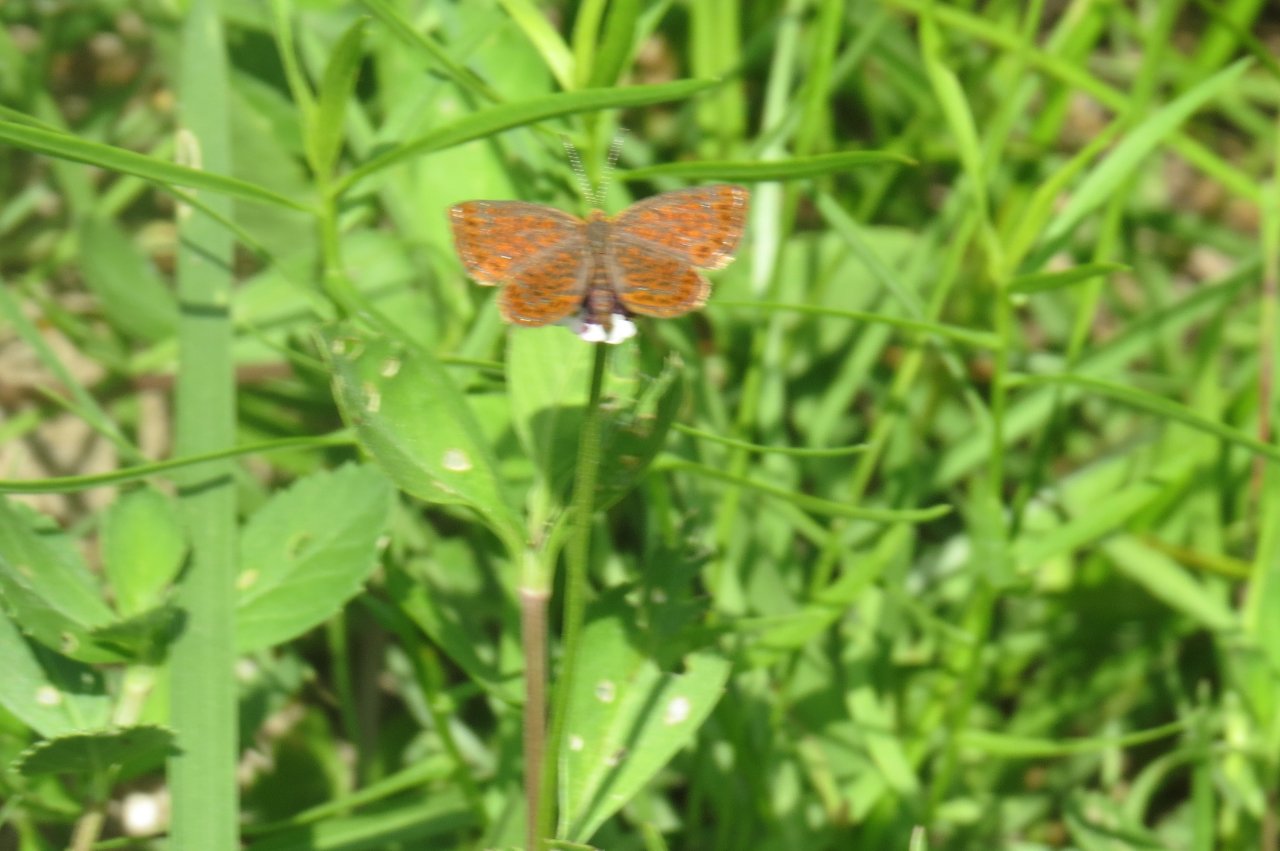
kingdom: Animalia
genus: Calephelis
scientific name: Calephelis virginiensis
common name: Little Metalmark
